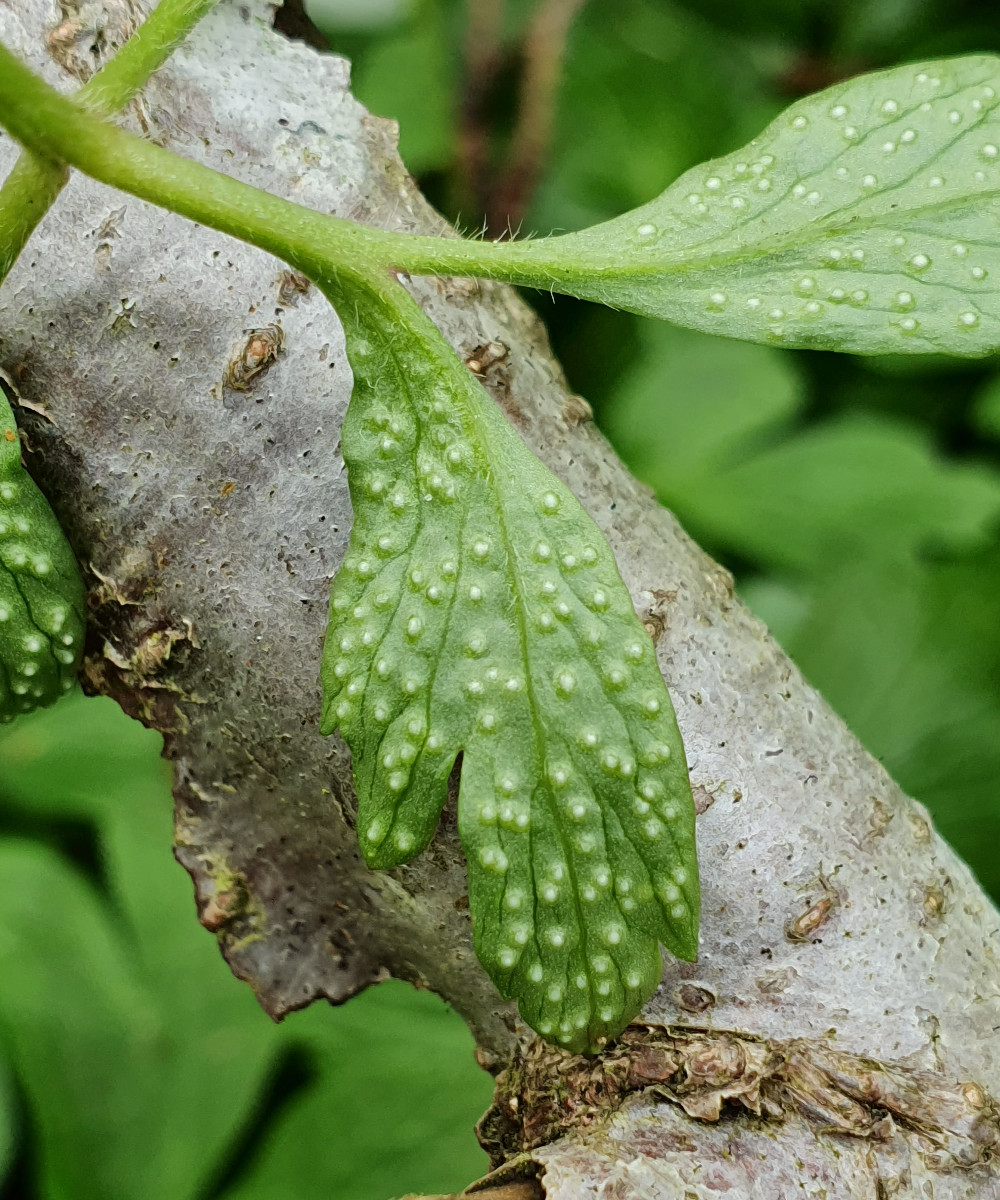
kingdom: Fungi
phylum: Basidiomycota
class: Pucciniomycetes
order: Pucciniales
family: Ochropsoraceae
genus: Ochropsora
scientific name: Ochropsora ariae
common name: anemone-okkerpletrust
